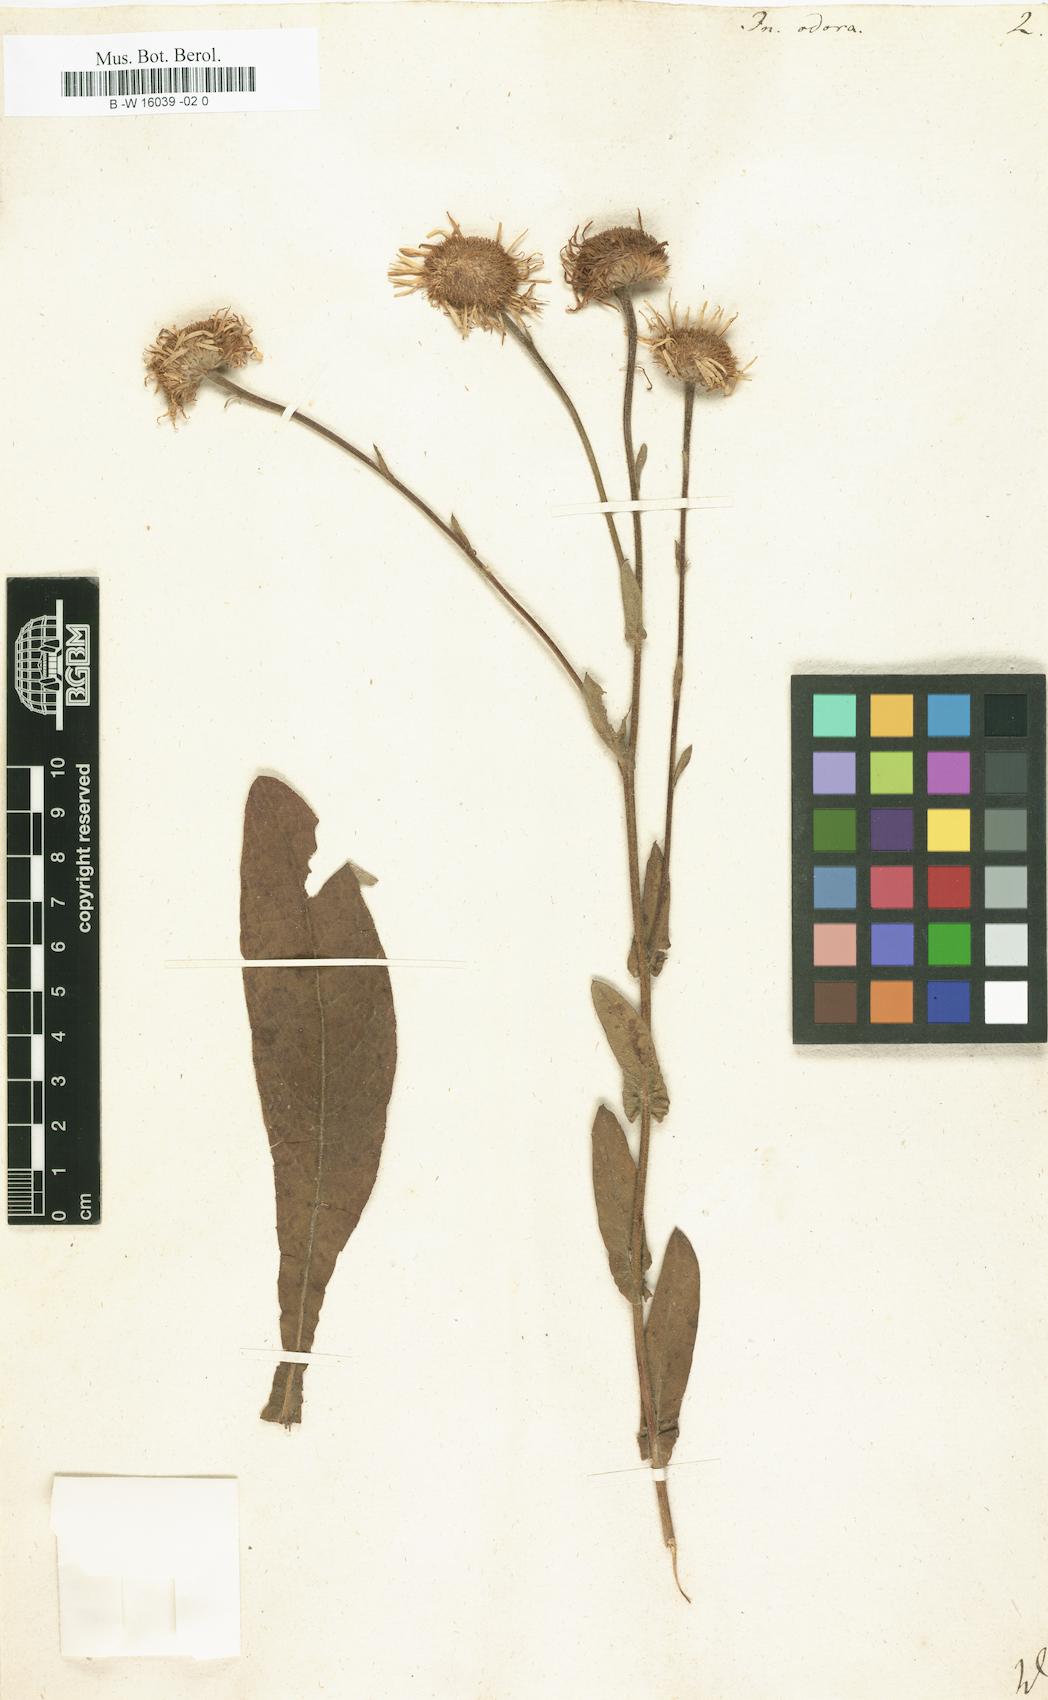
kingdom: Plantae
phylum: Tracheophyta
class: Magnoliopsida
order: Asterales
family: Asteraceae
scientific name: Asteraceae
